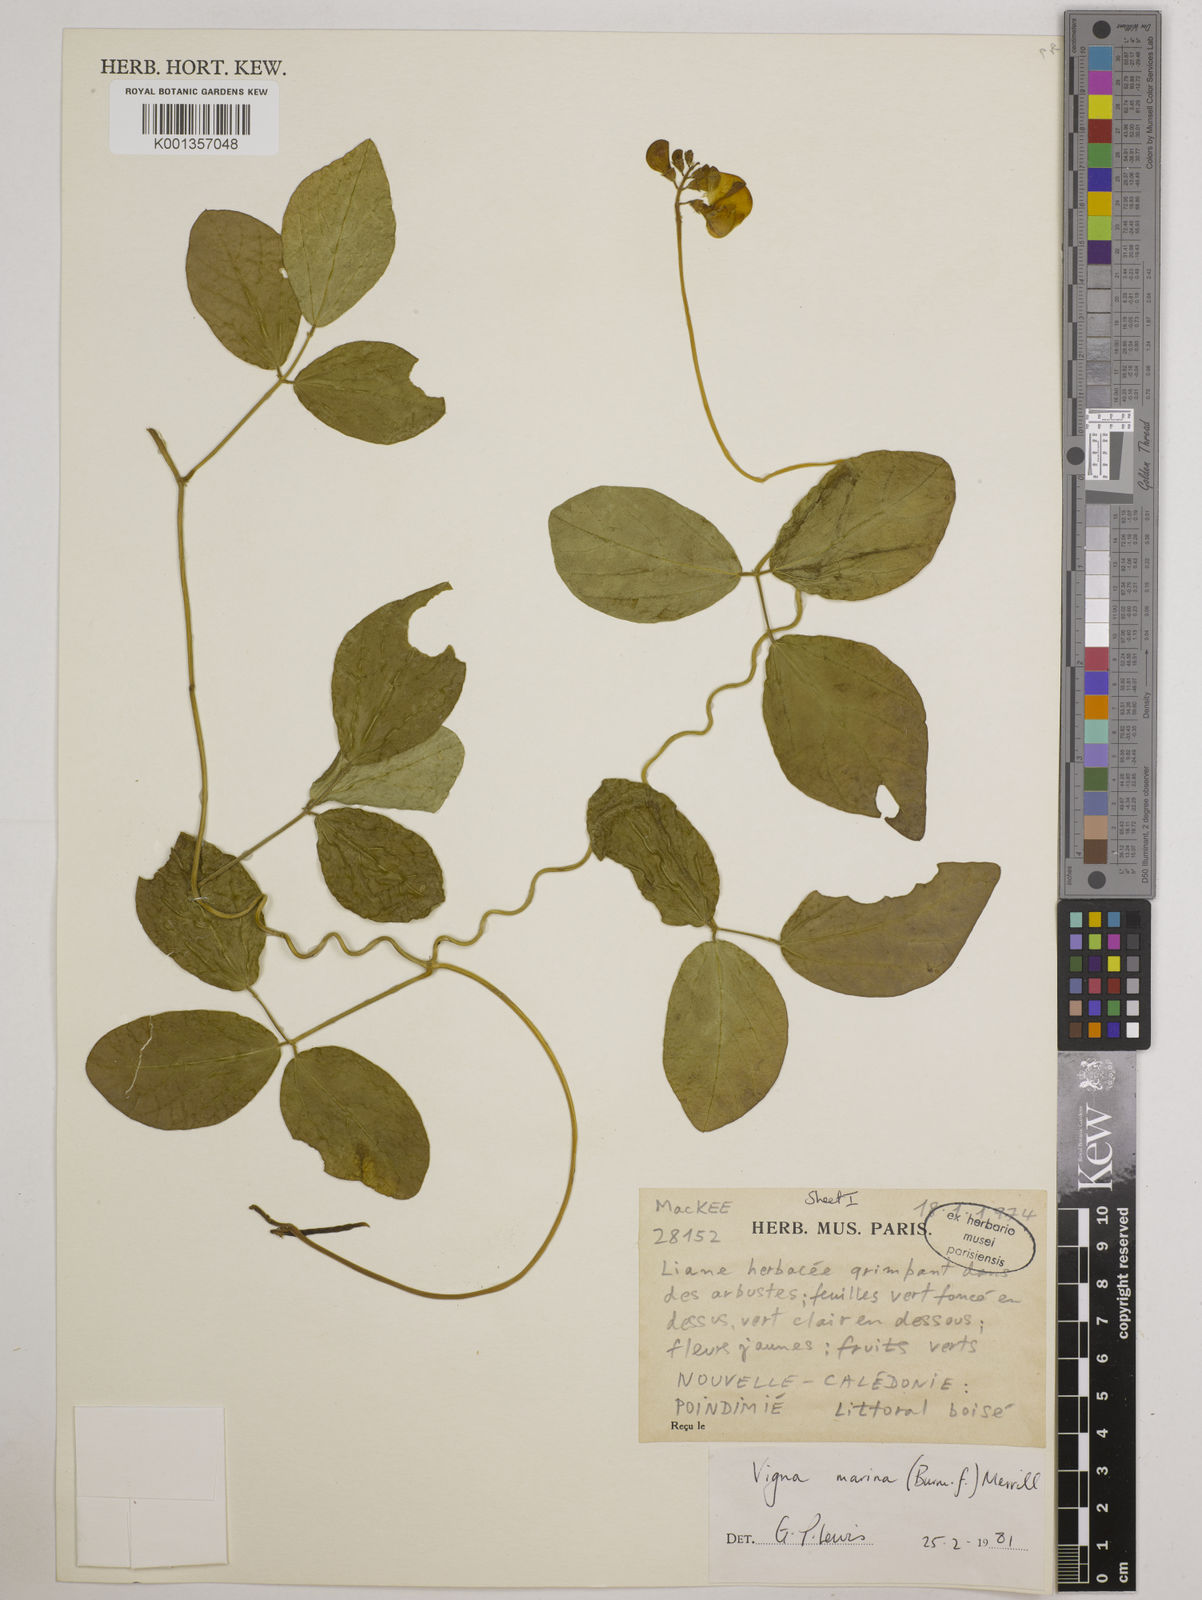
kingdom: Plantae
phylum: Tracheophyta
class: Magnoliopsida
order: Fabales
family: Fabaceae
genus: Vigna
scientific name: Vigna marina
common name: Dune-bean
